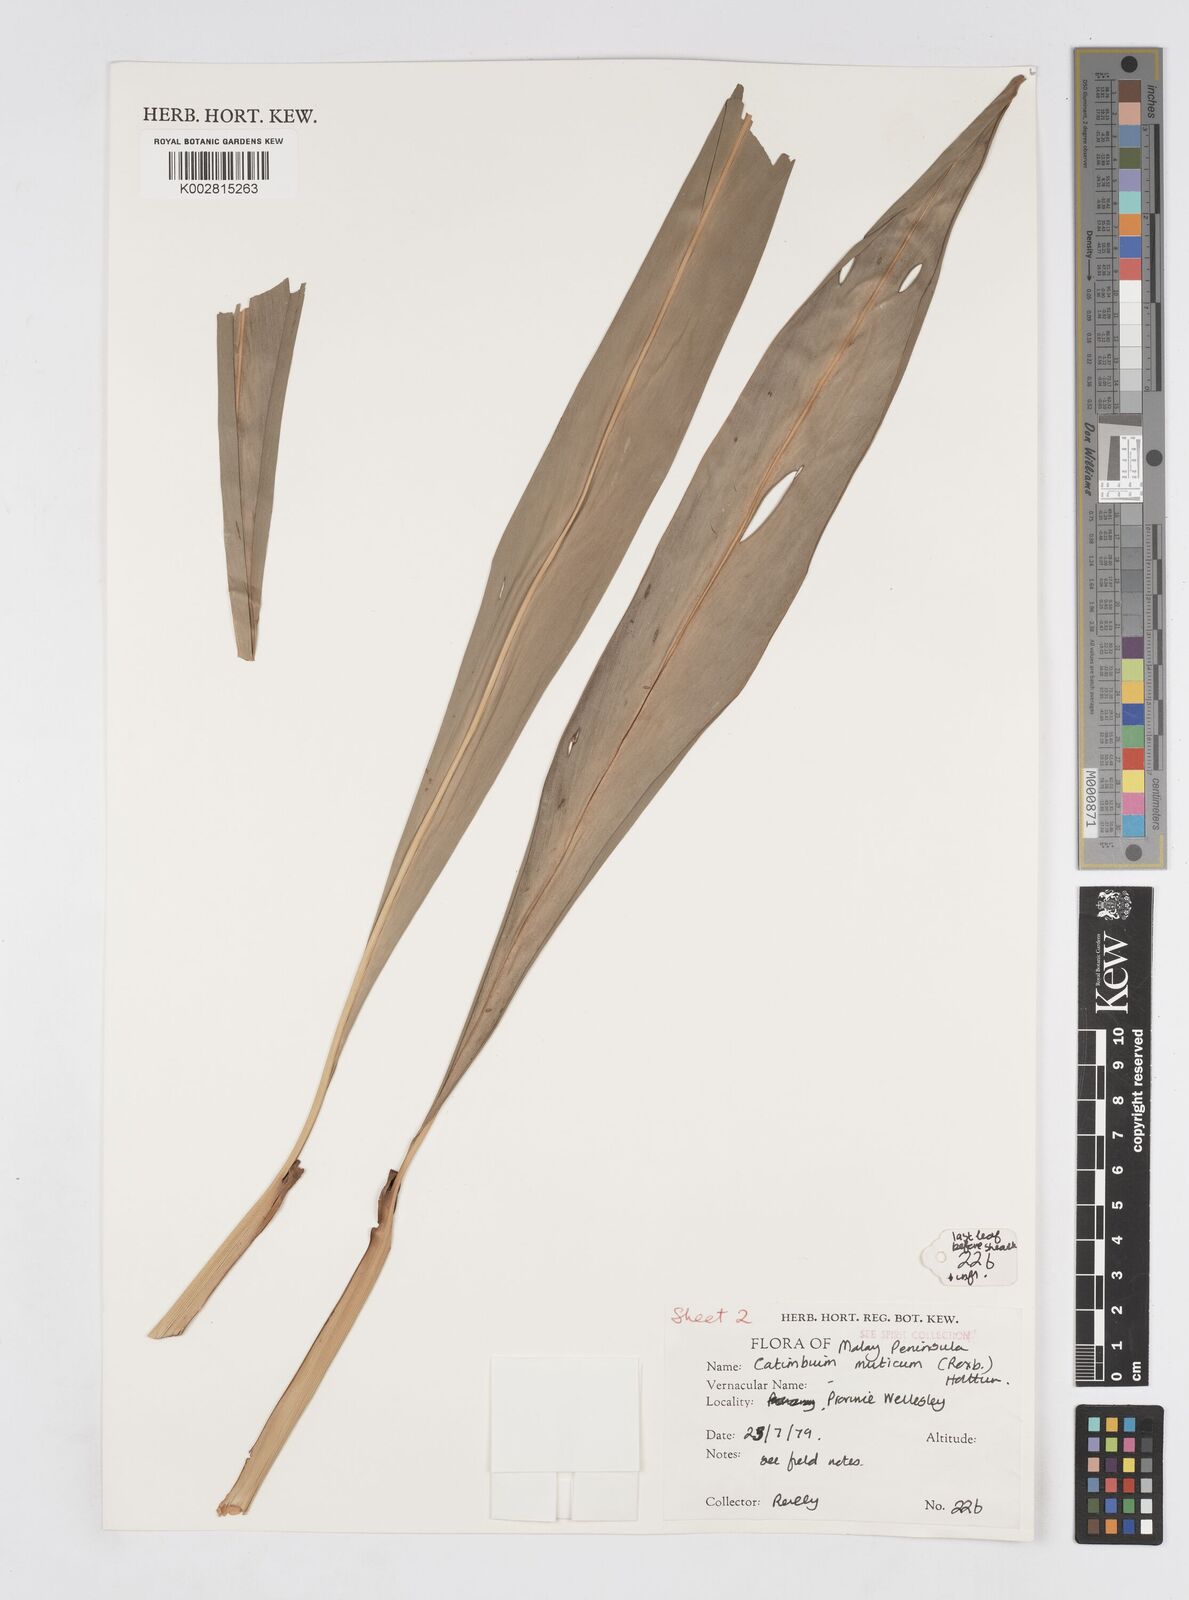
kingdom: Plantae
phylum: Tracheophyta
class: Liliopsida
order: Zingiberales
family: Zingiberaceae
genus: Alpinia
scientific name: Alpinia mutica
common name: Small shell ginger
